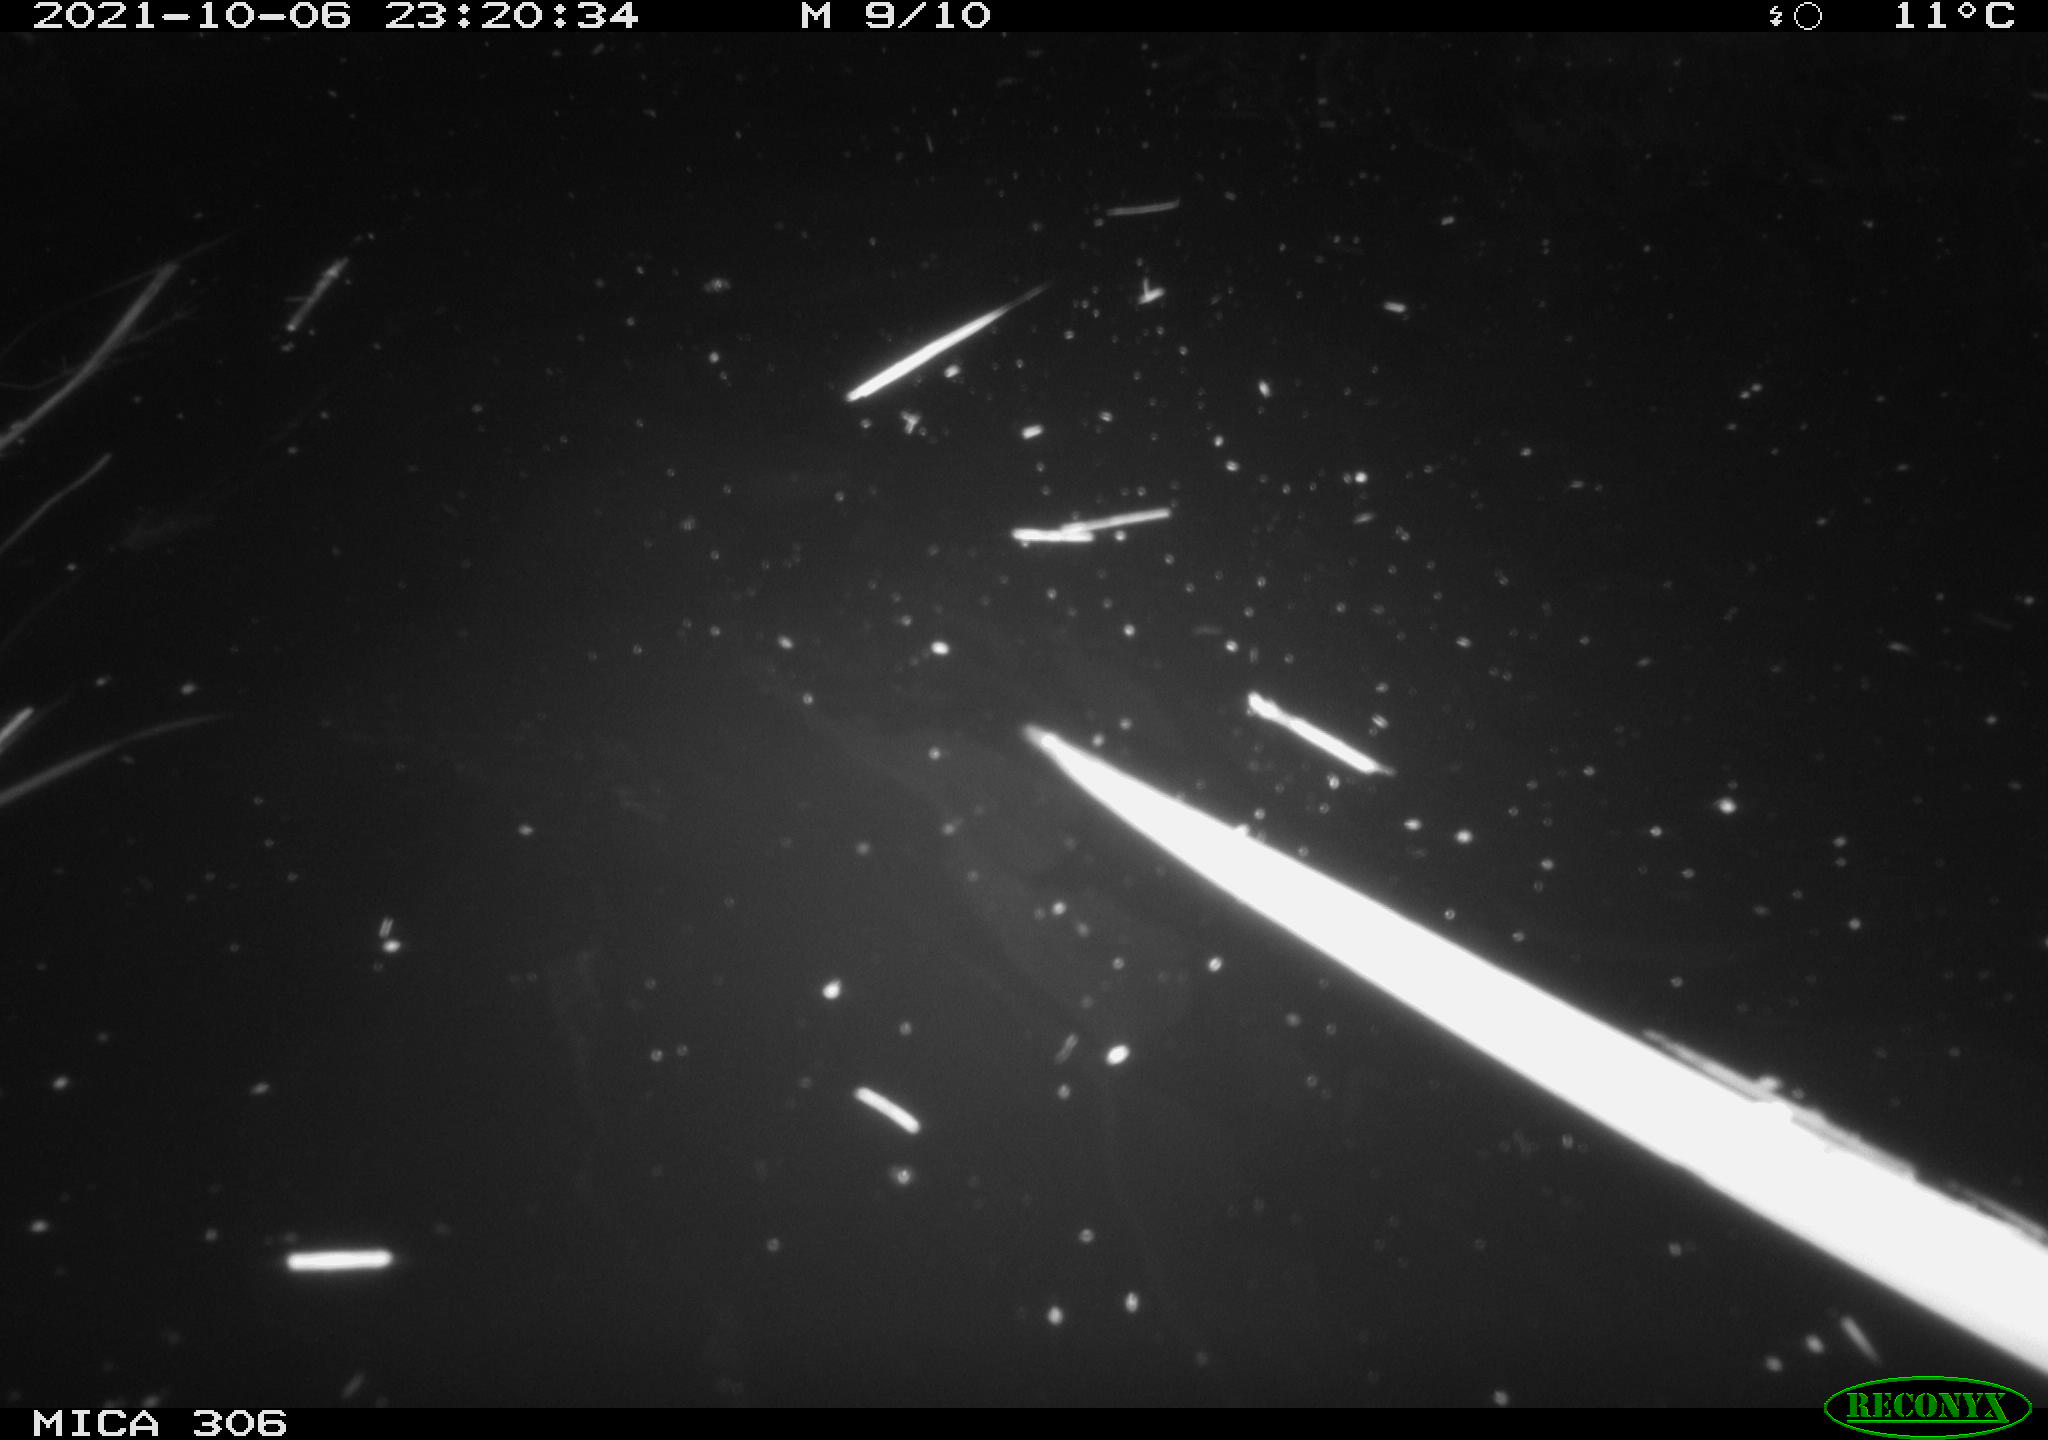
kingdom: Animalia
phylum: Chordata
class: Mammalia
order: Rodentia
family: Cricetidae
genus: Ondatra
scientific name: Ondatra zibethicus
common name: Muskrat
